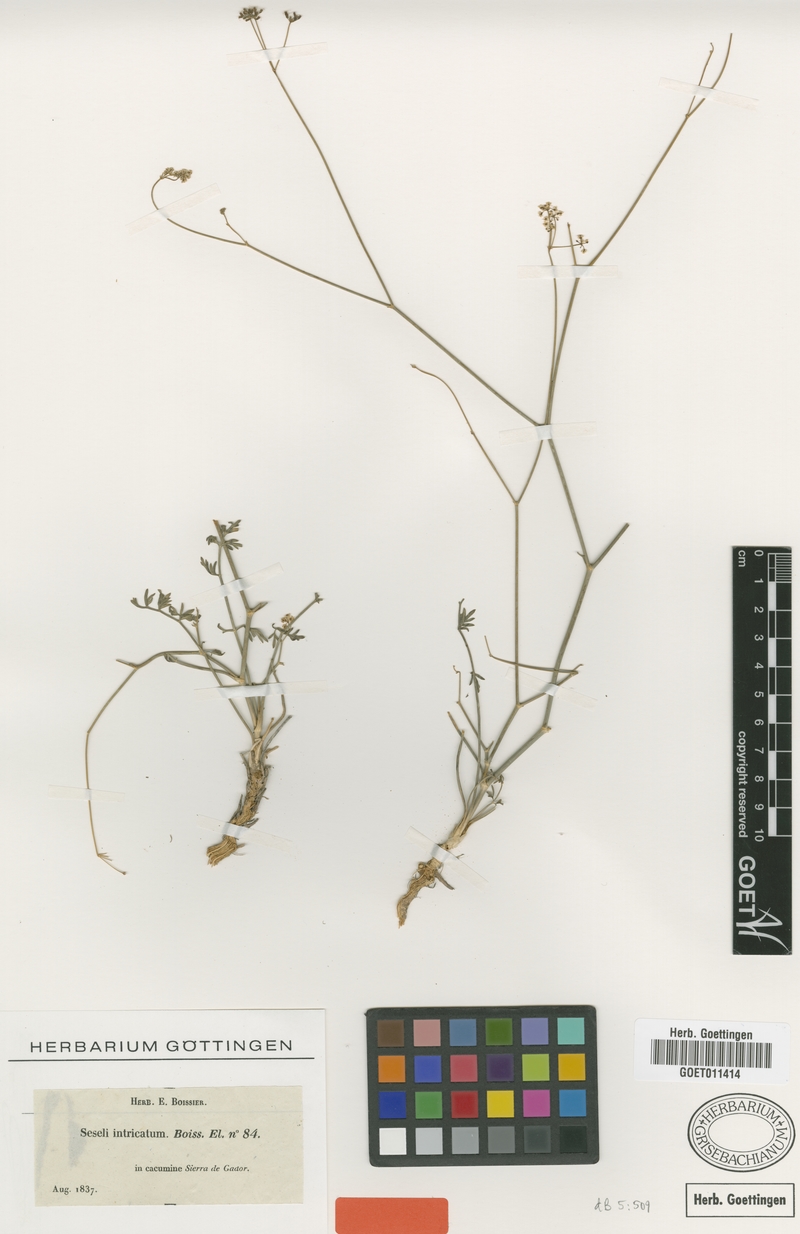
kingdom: Plantae
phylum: Tracheophyta
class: Magnoliopsida
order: Apiales
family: Apiaceae
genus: Seseli
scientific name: Seseli intricatum
